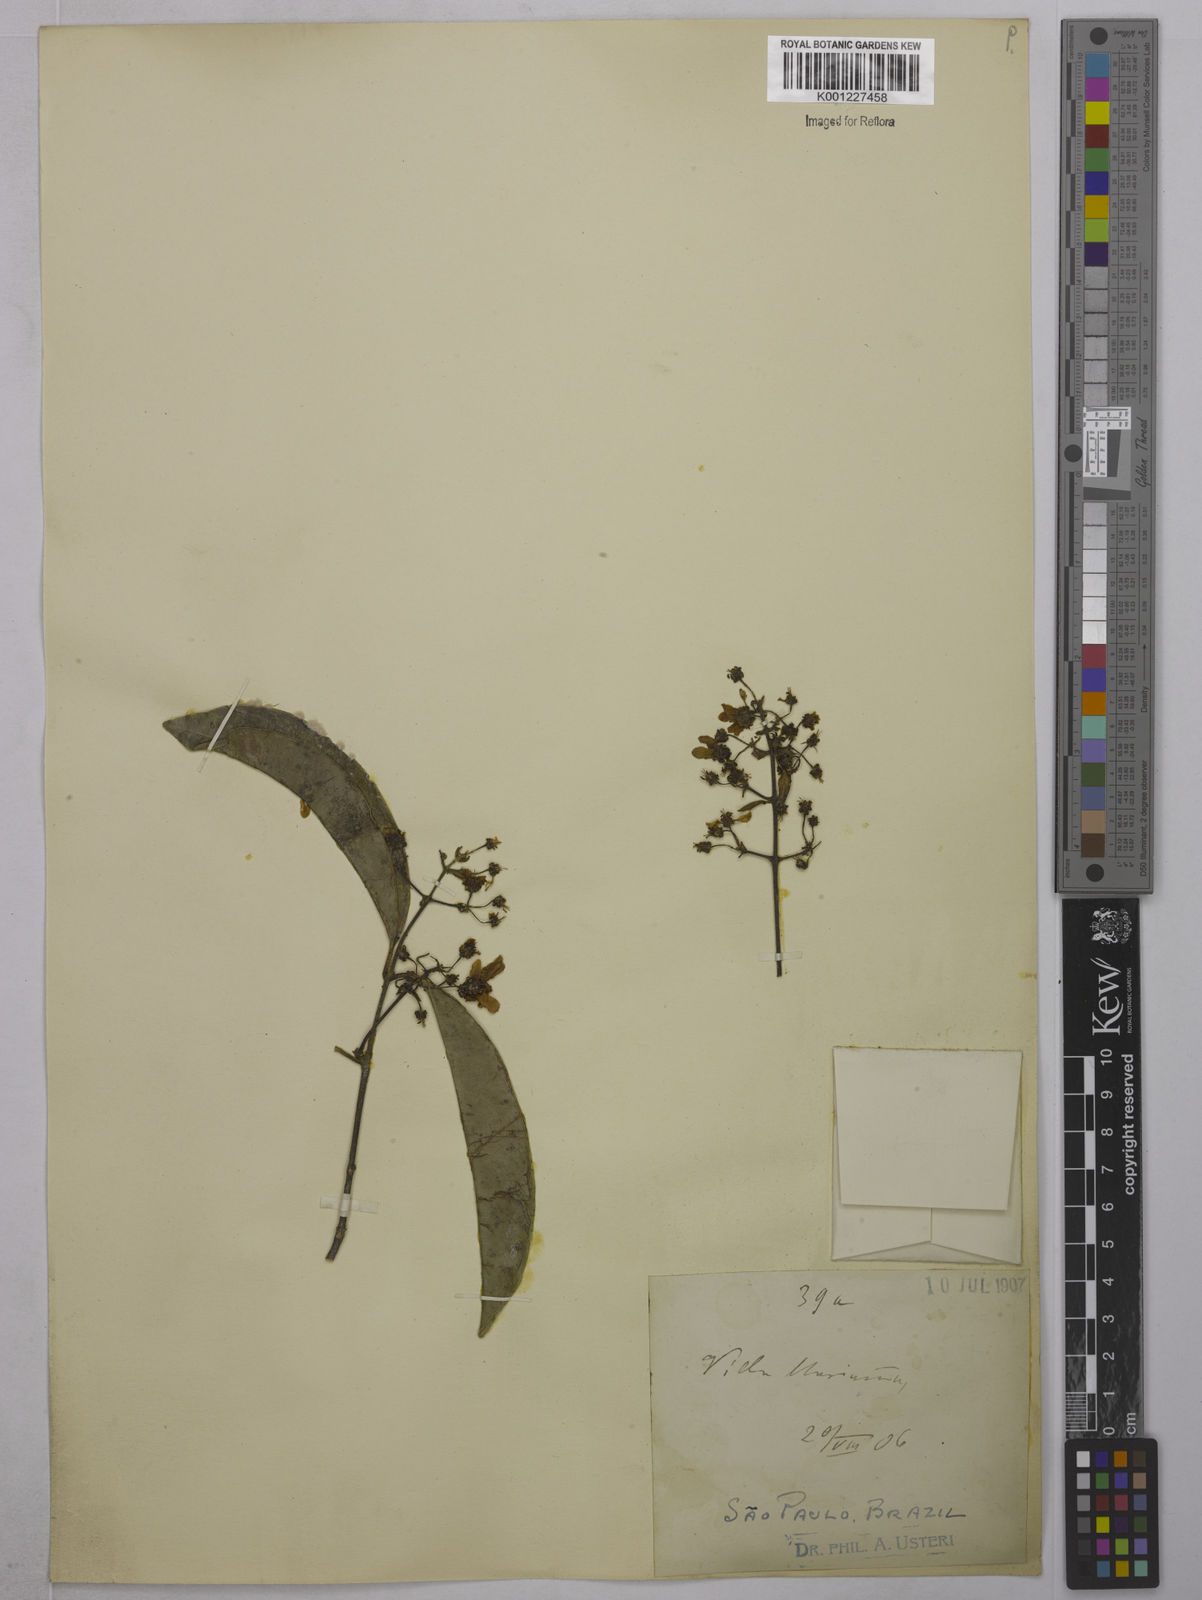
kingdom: Plantae
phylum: Tracheophyta
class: Magnoliopsida
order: Malpighiales
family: Malpighiaceae
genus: Tetrapterys
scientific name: Tetrapterys
